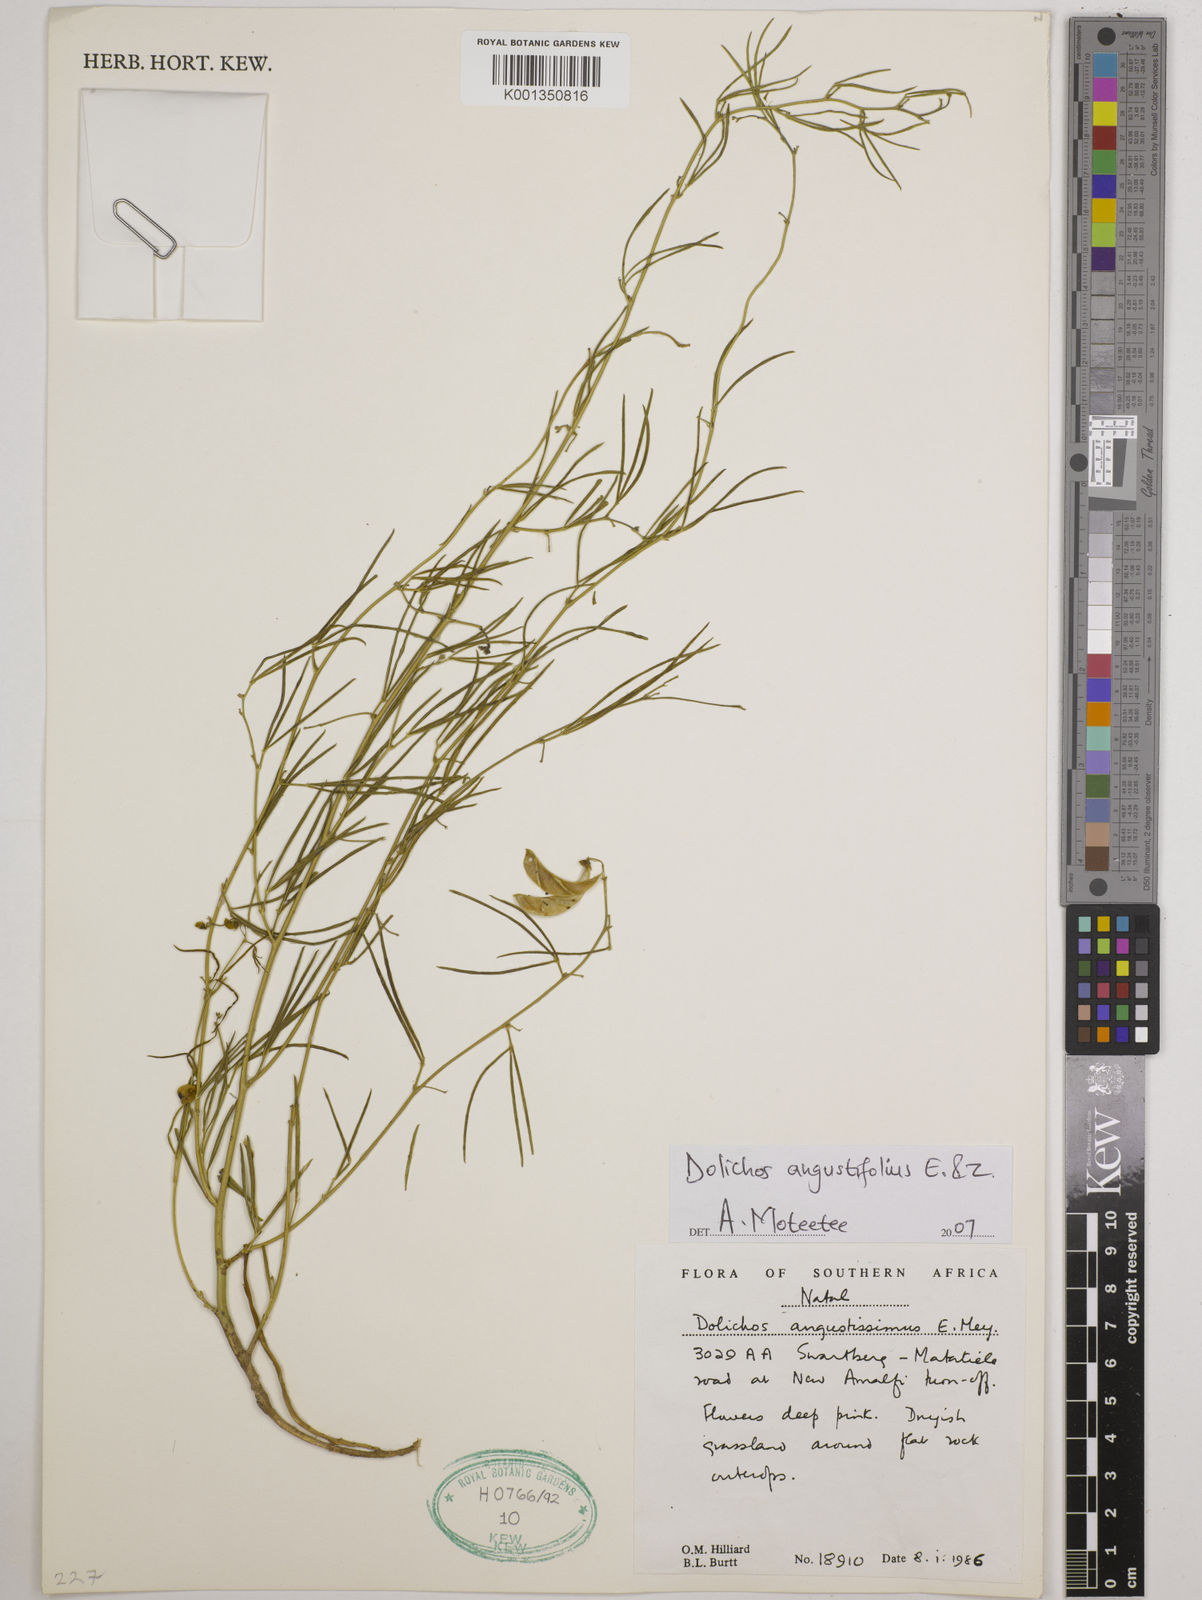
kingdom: Plantae
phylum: Tracheophyta
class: Magnoliopsida
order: Fabales
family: Fabaceae
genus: Dolichos
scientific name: Dolichos
